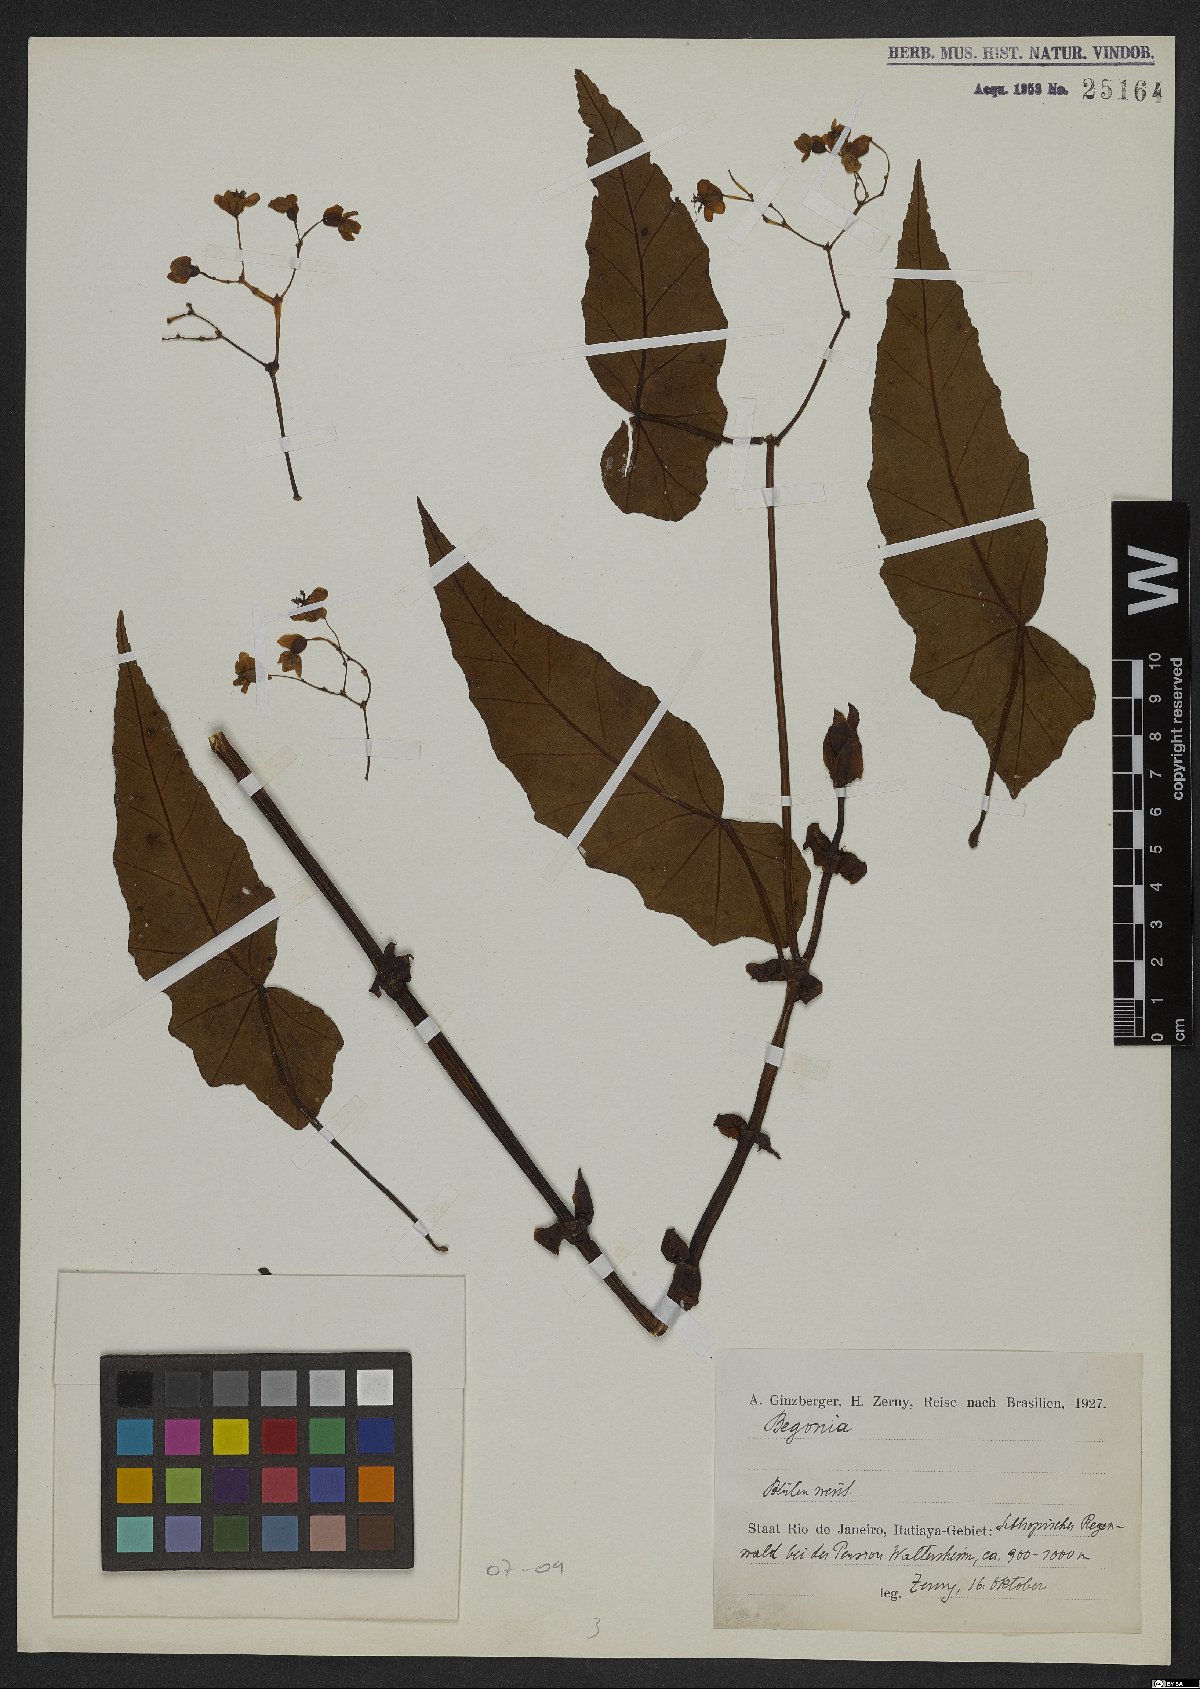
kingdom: Plantae
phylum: Tracheophyta
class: Magnoliopsida
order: Cucurbitales
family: Begoniaceae
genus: Begonia
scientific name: Begonia
